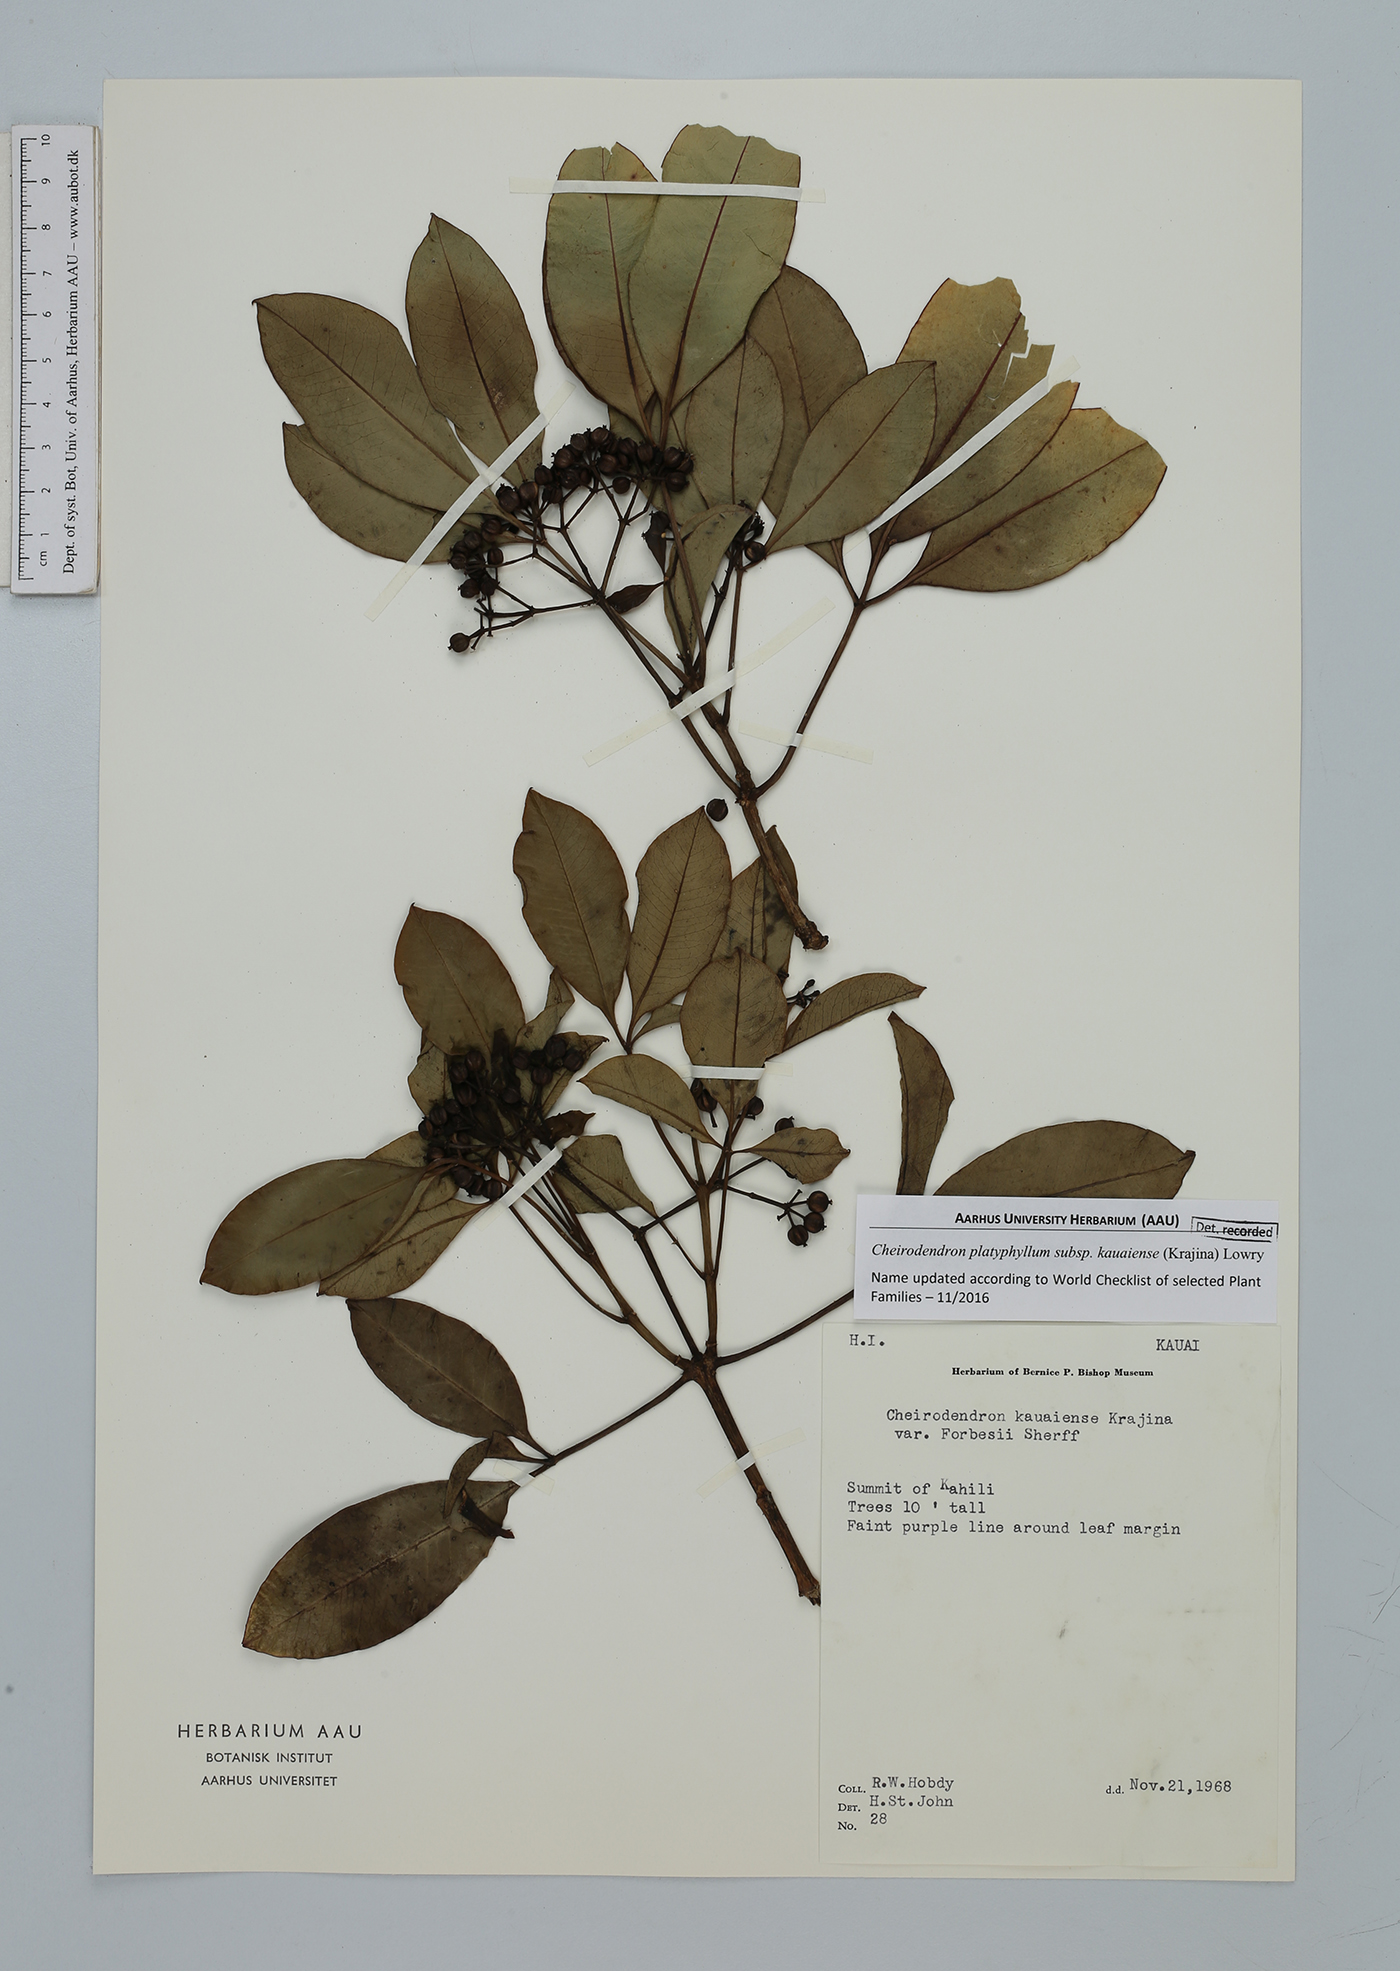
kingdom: Plantae
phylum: Tracheophyta
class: Magnoliopsida
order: Apiales
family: Araliaceae
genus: Cheirodendron
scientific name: Cheirodendron platyphyllum
